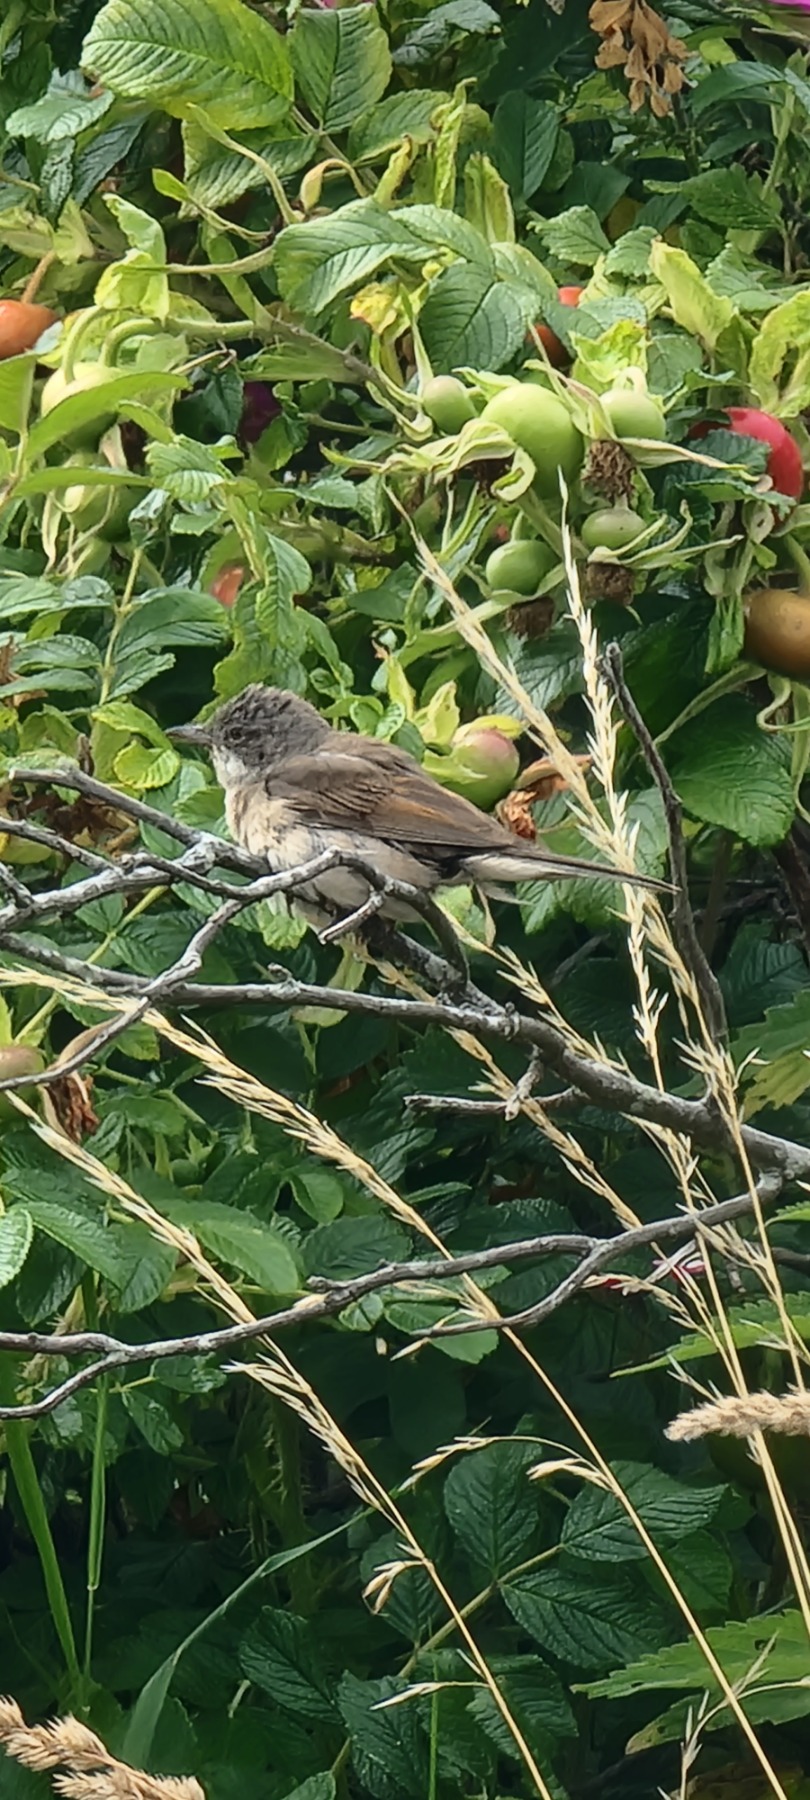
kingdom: Animalia
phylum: Chordata
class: Aves
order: Passeriformes
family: Sylviidae
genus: Sylvia
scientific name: Sylvia communis
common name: Tornsanger
